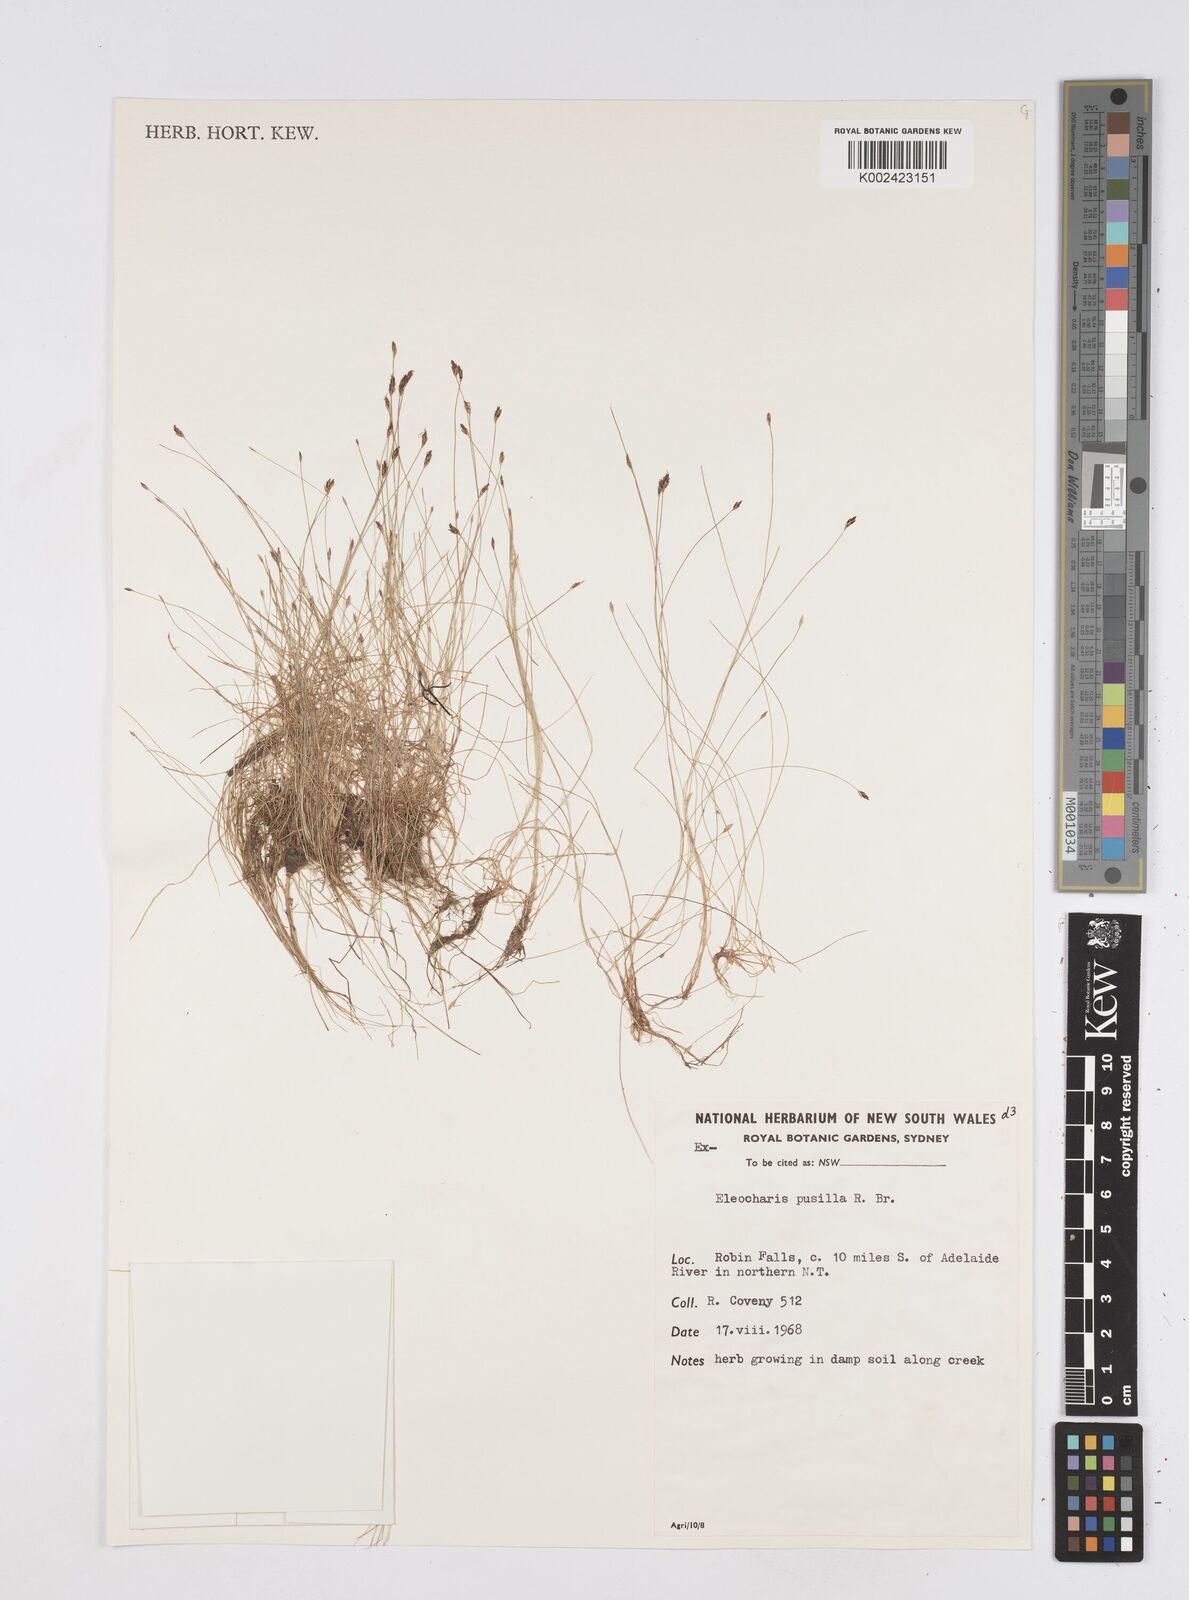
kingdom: Plantae
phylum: Tracheophyta
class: Liliopsida
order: Poales
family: Cyperaceae
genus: Eleocharis
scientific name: Eleocharis pusilla
